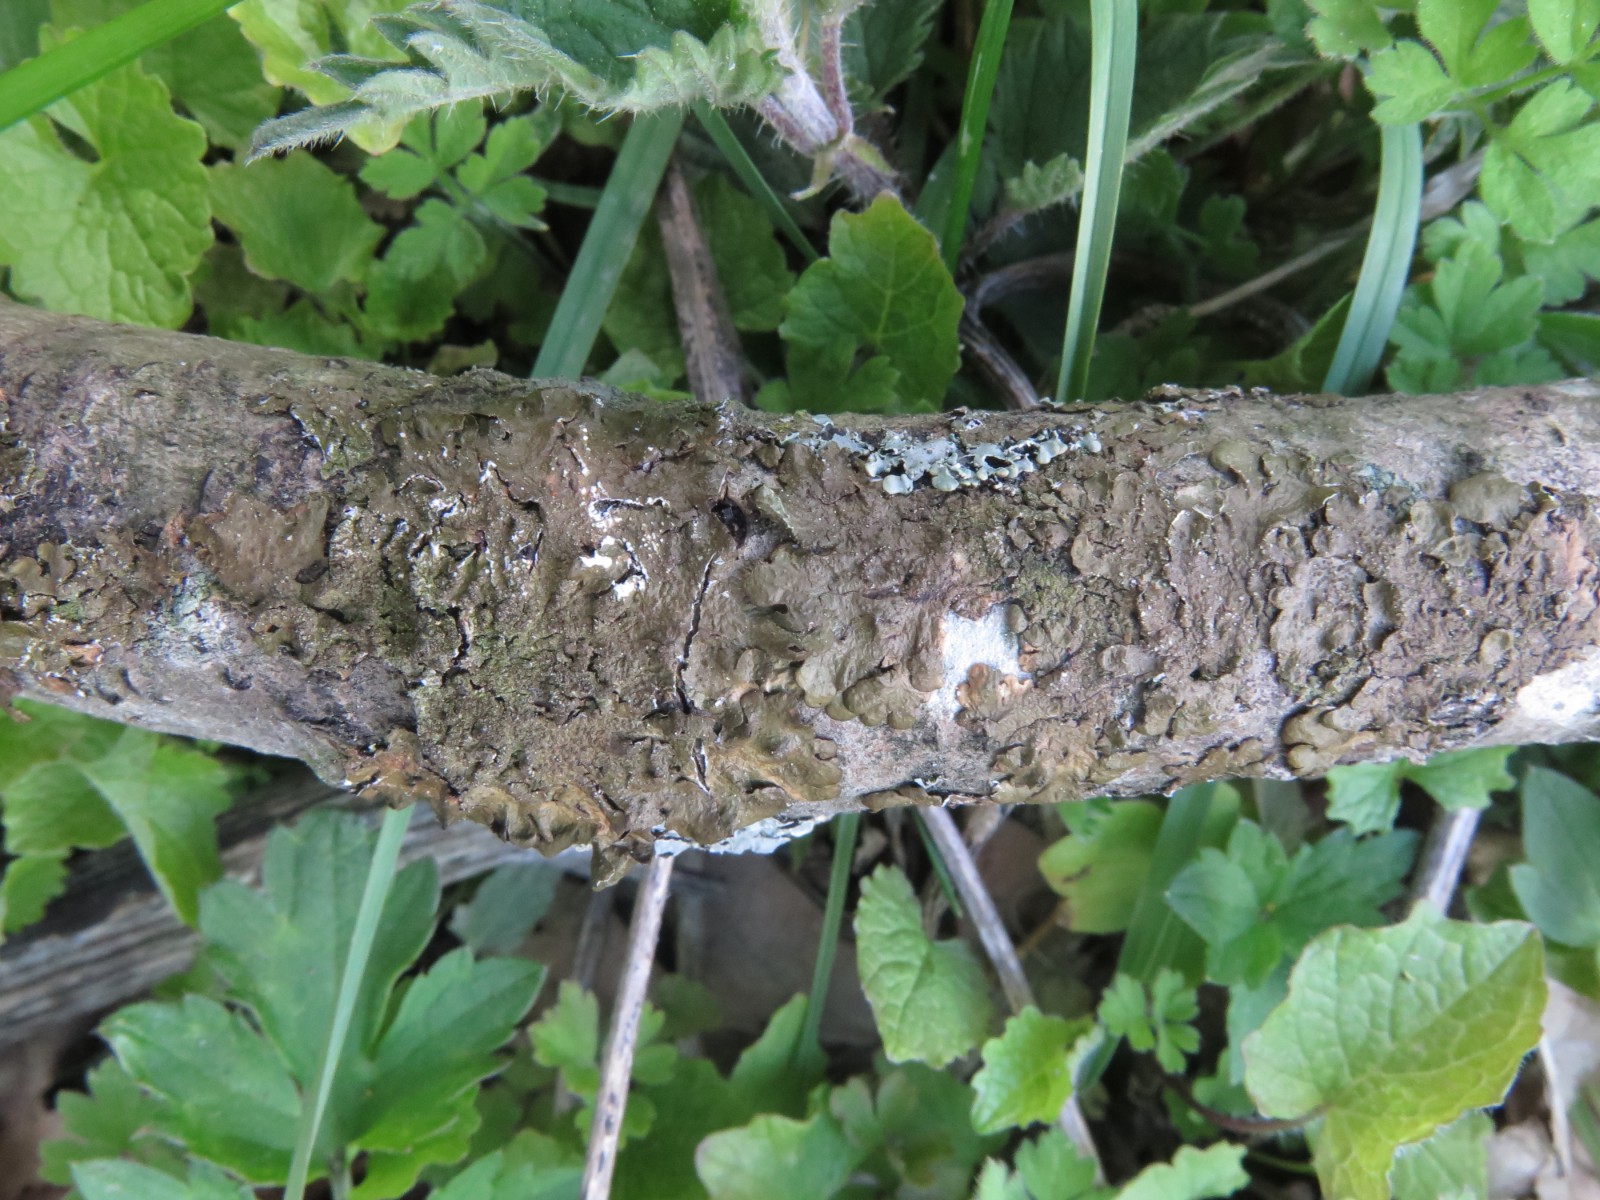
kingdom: Fungi
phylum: Ascomycota
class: Lecanoromycetes
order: Lecanorales
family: Parmeliaceae
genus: Melanelixia
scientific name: Melanelixia subaurifera
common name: guldpudret skållav
